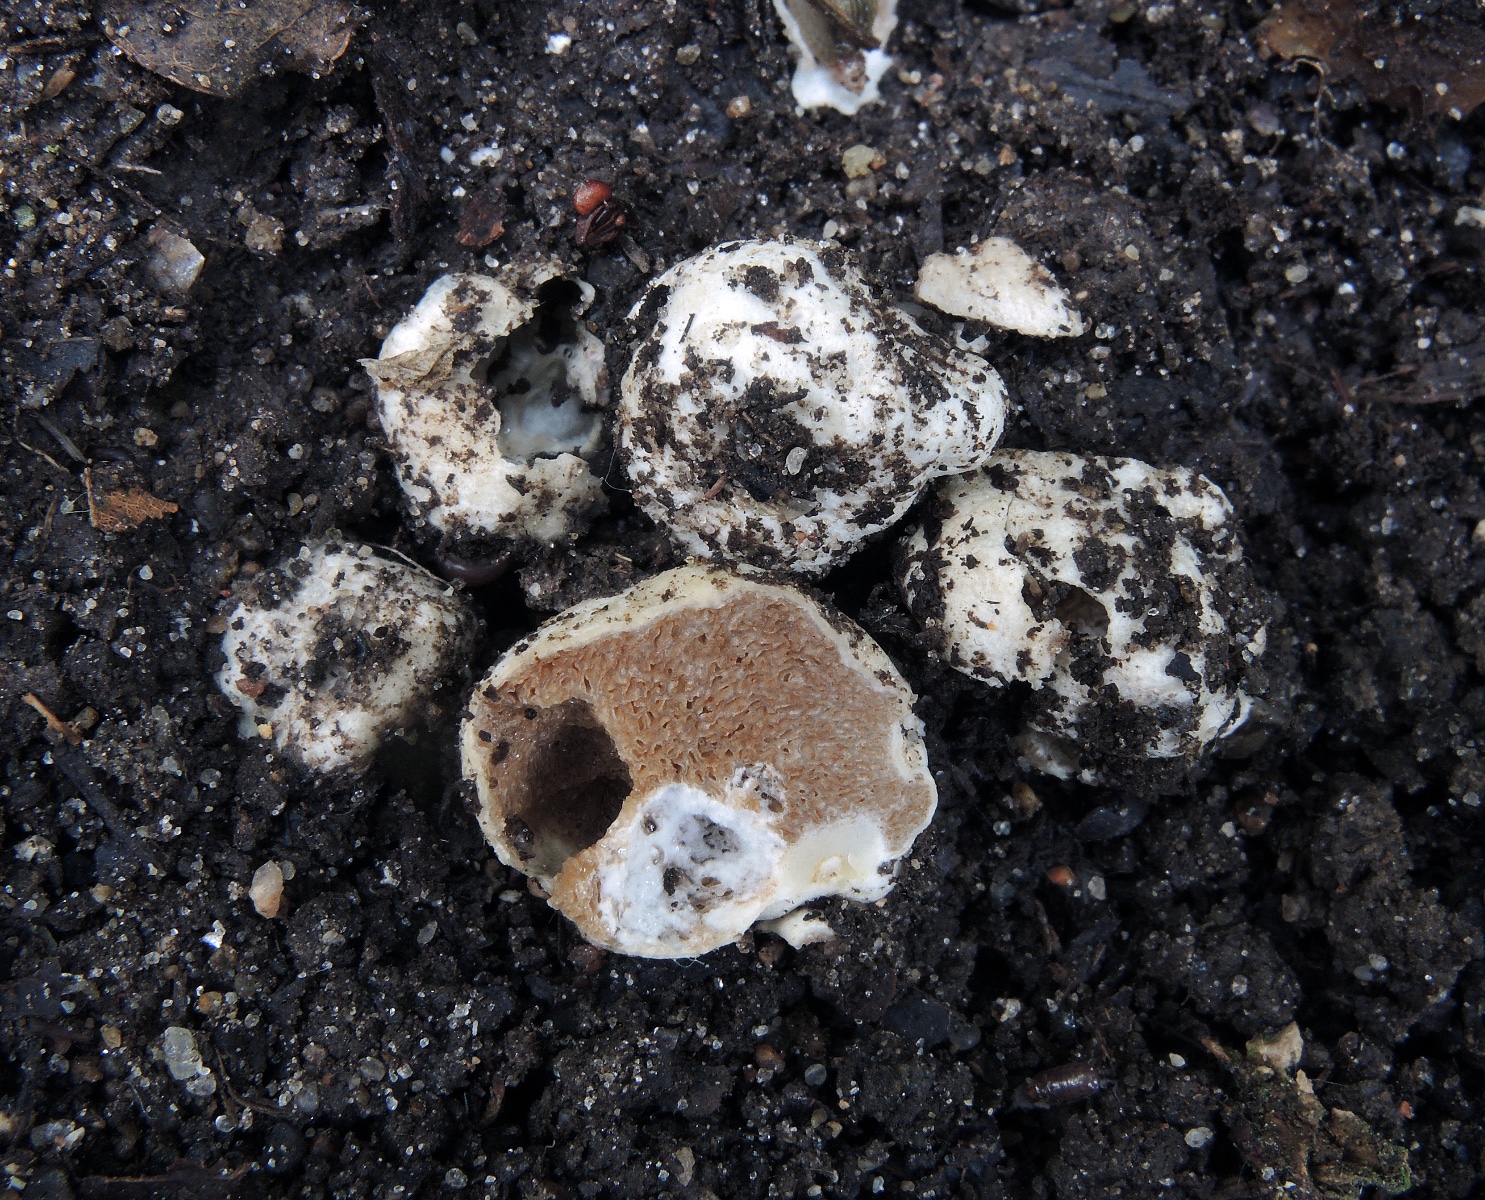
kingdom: Fungi
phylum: Basidiomycota
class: Agaricomycetes
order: Agaricales
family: Cortinariaceae
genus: Protoglossum
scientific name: Protoglossum niveum
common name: hvid knoldtrøffel
